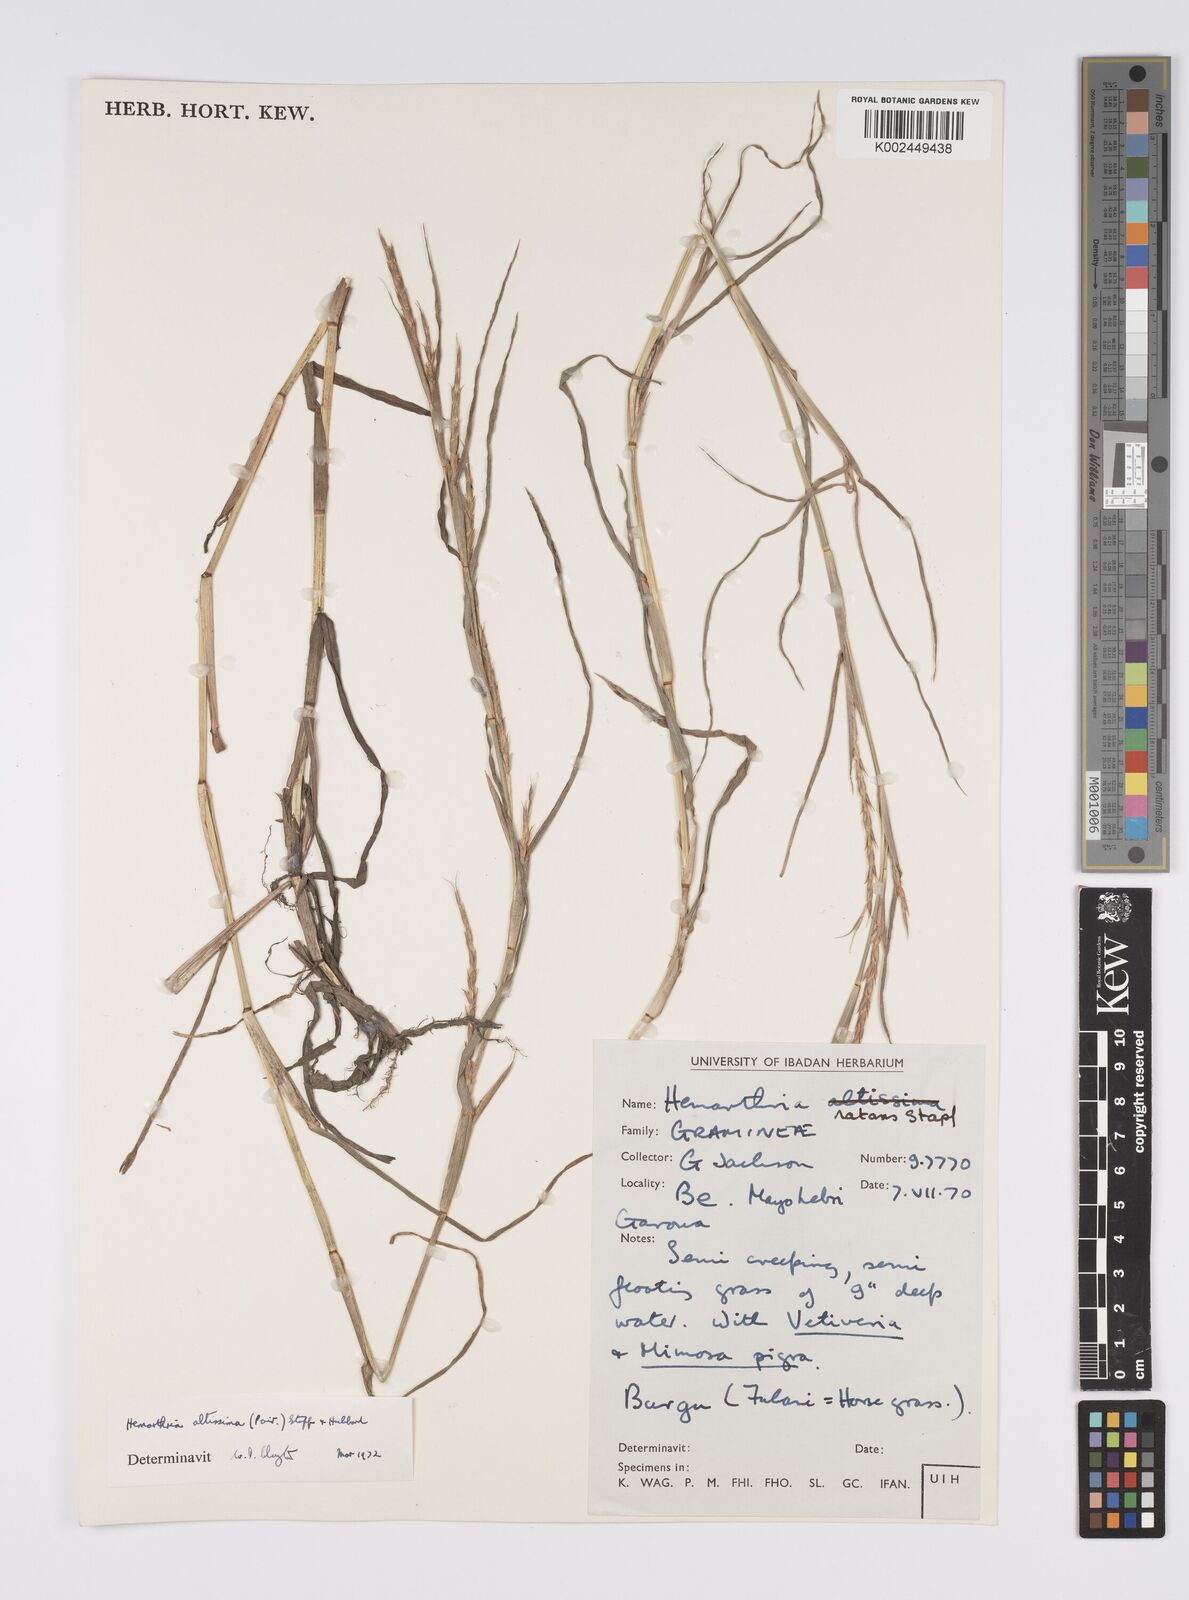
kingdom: Plantae
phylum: Tracheophyta
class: Liliopsida
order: Poales
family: Poaceae
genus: Hemarthria
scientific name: Hemarthria altissima
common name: African jointgrass
